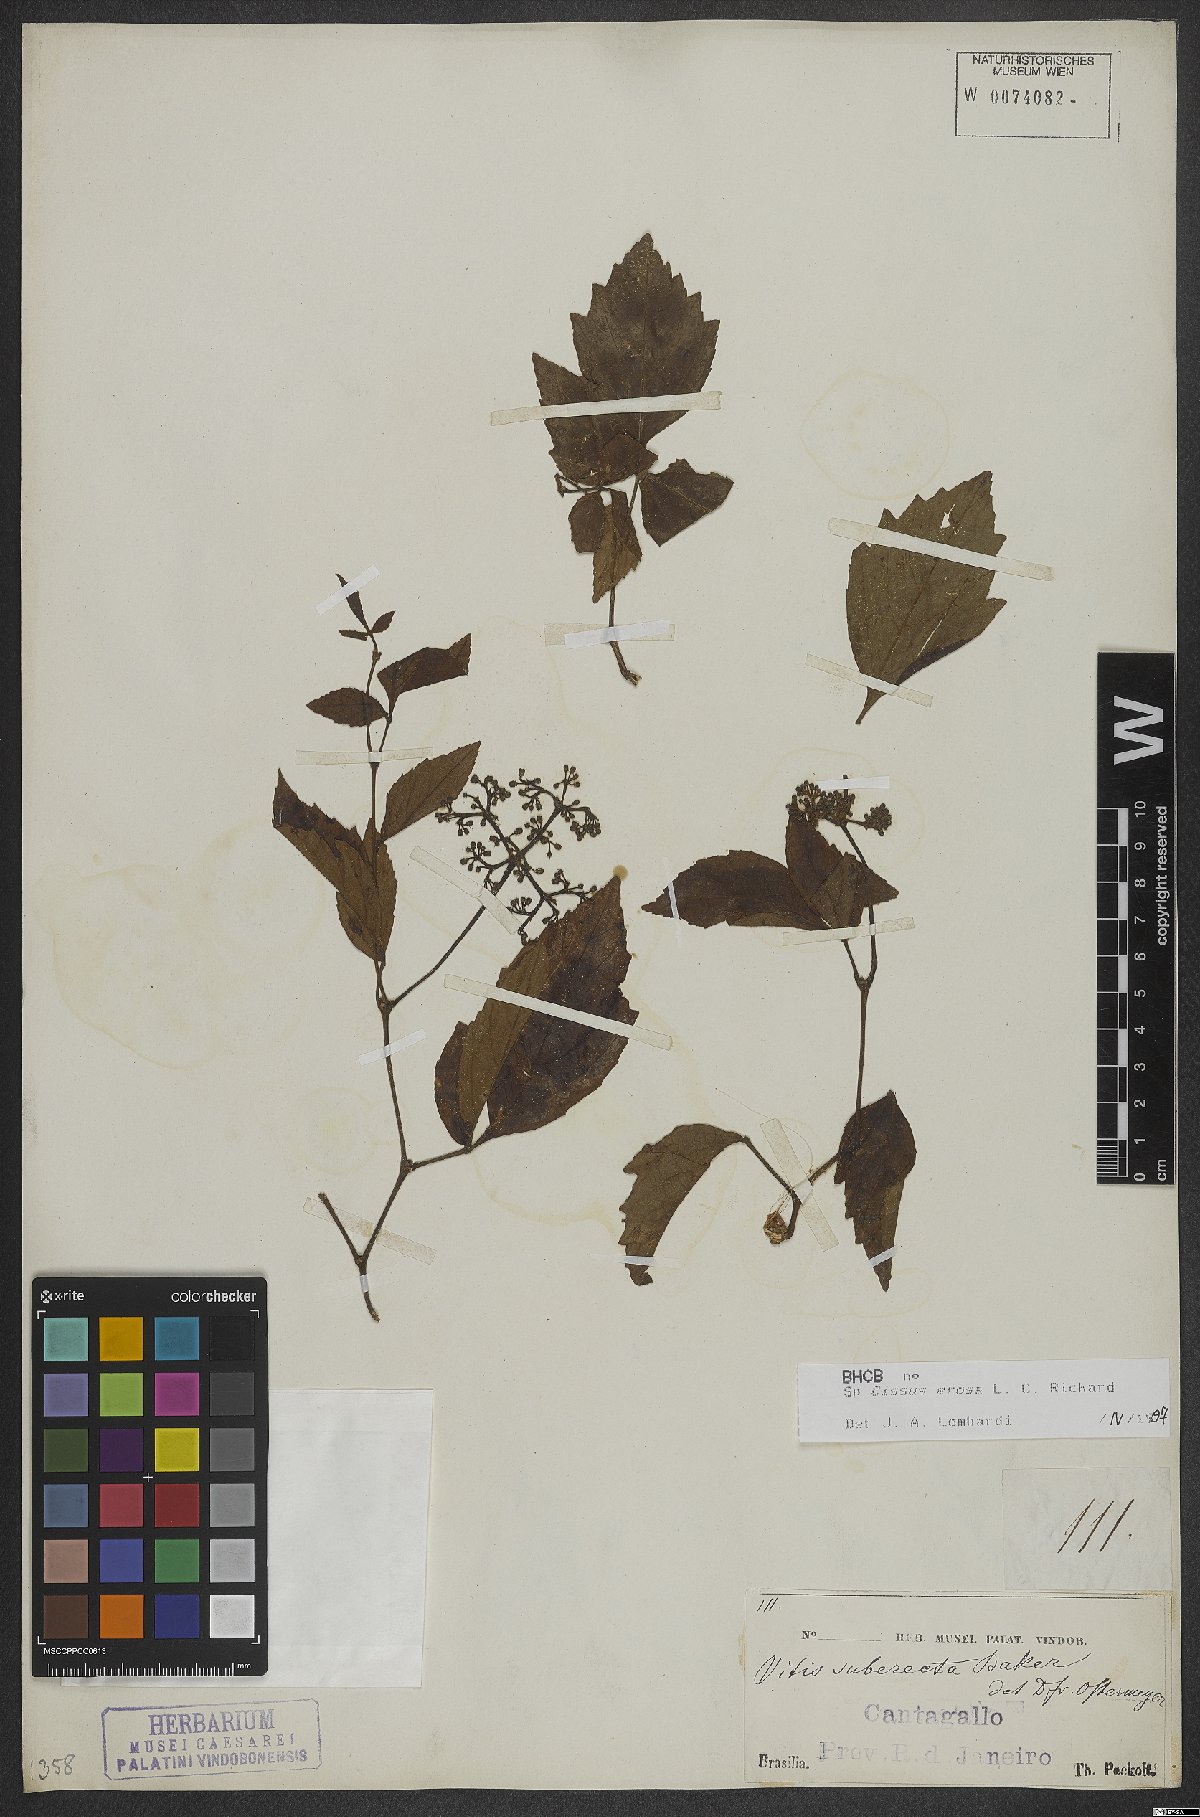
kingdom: Plantae
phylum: Tracheophyta
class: Magnoliopsida
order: Vitales
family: Vitaceae
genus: Cissus
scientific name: Cissus erosa
